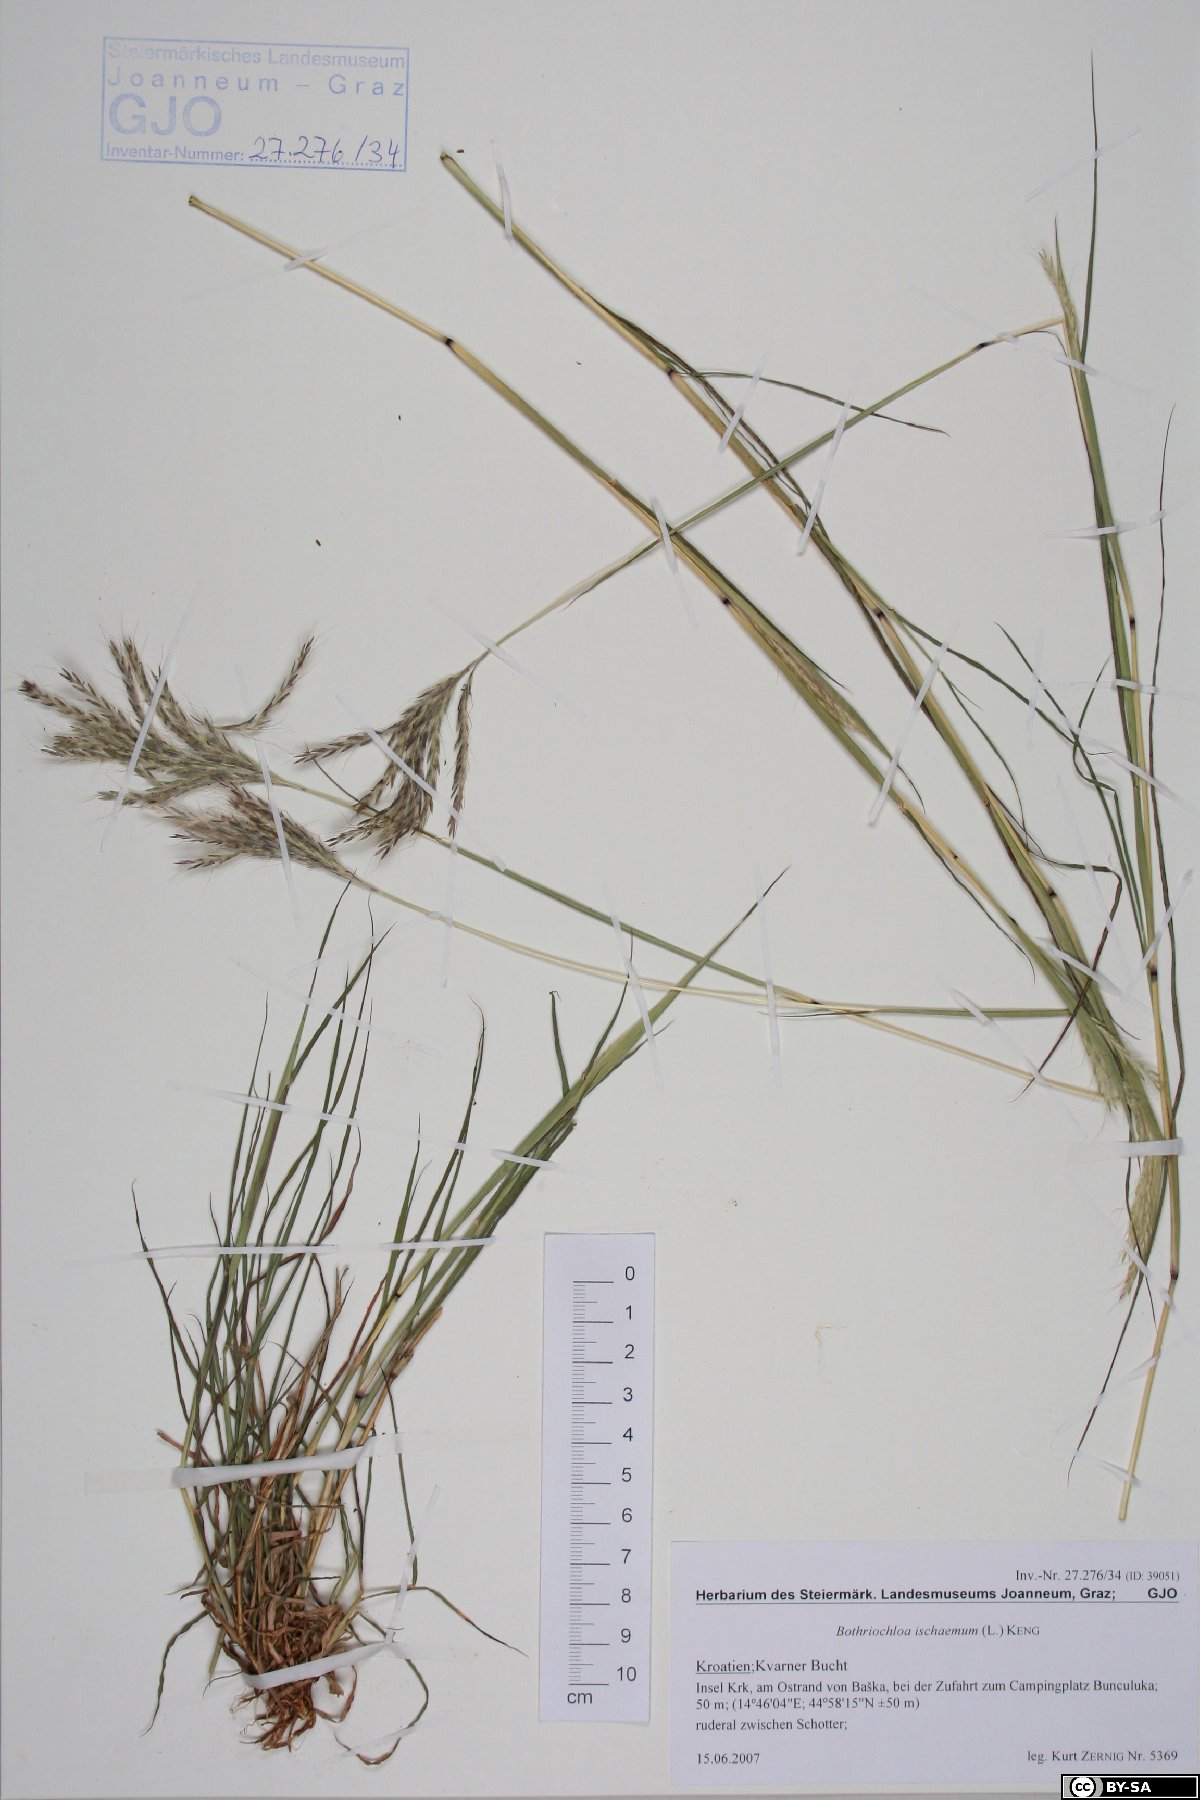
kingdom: Plantae
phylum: Tracheophyta
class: Liliopsida
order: Poales
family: Poaceae
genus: Bothriochloa
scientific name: Bothriochloa ischaemum
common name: Yellow bluestem
